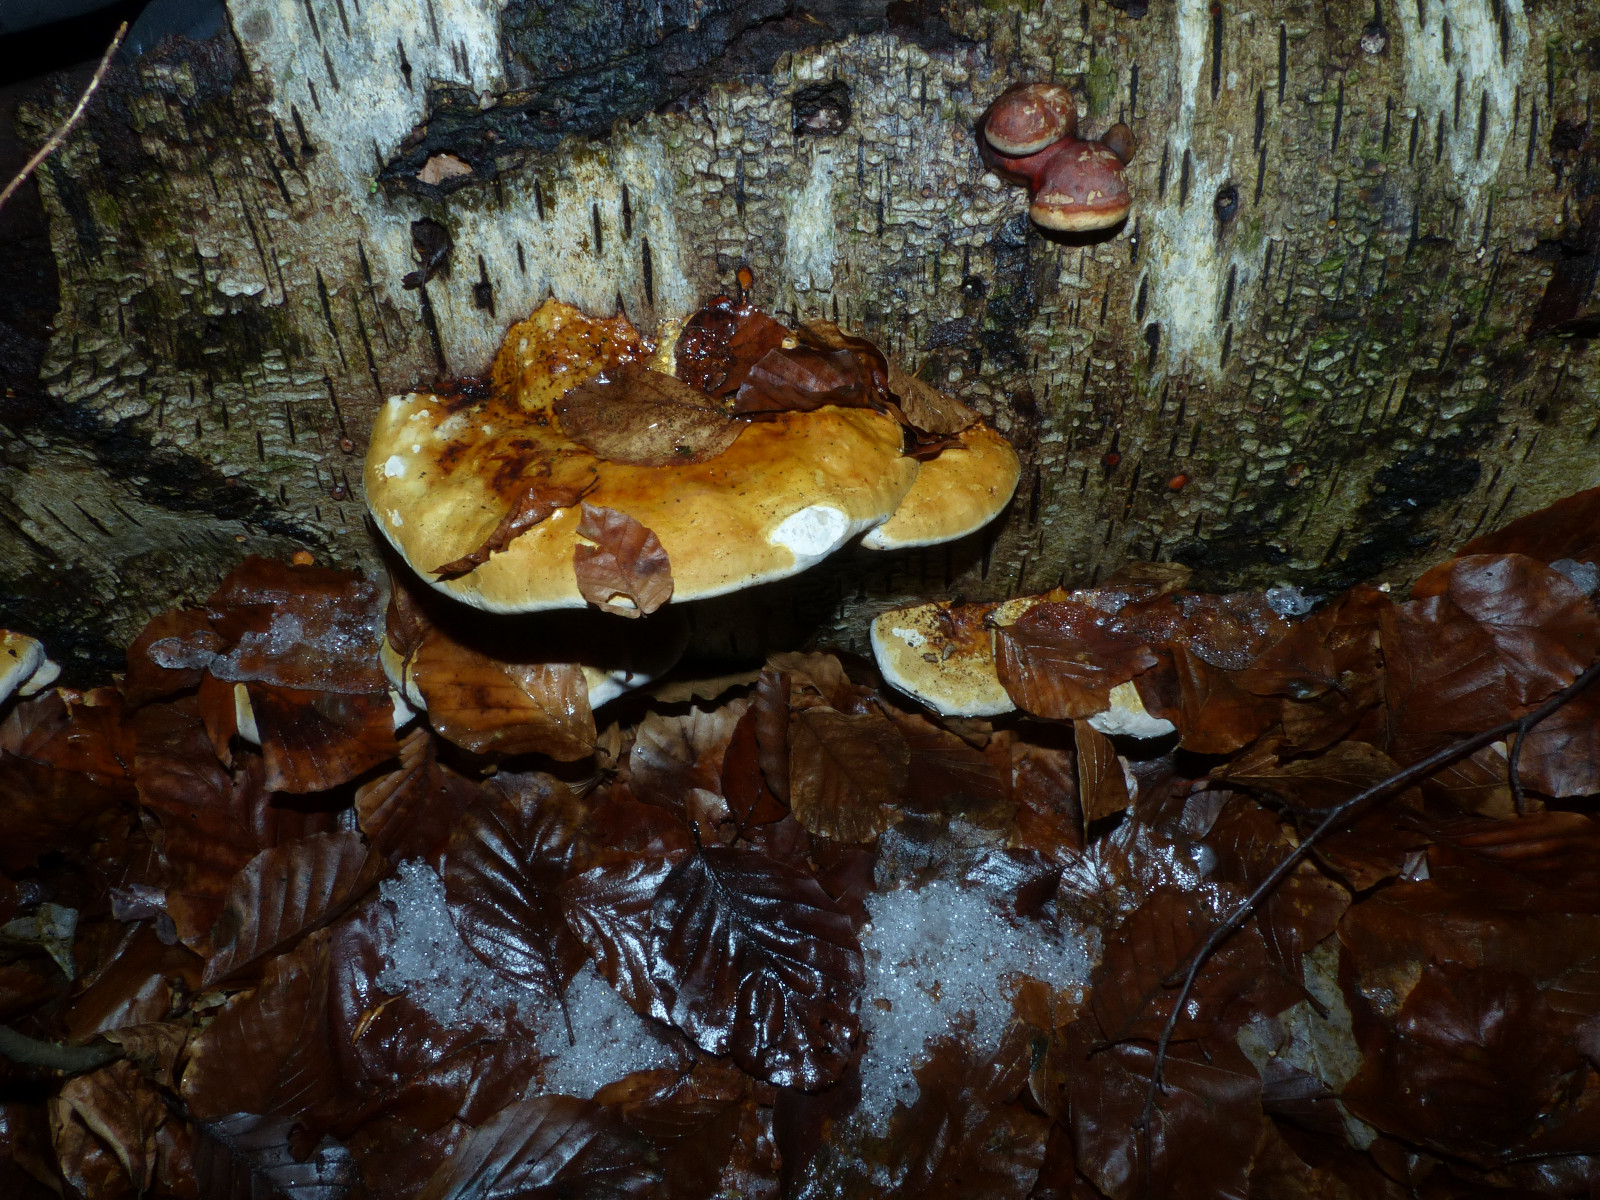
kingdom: Fungi
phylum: Basidiomycota
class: Agaricomycetes
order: Polyporales
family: Fomitopsidaceae
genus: Fomitopsis
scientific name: Fomitopsis pinicola
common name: randbæltet hovporesvamp
